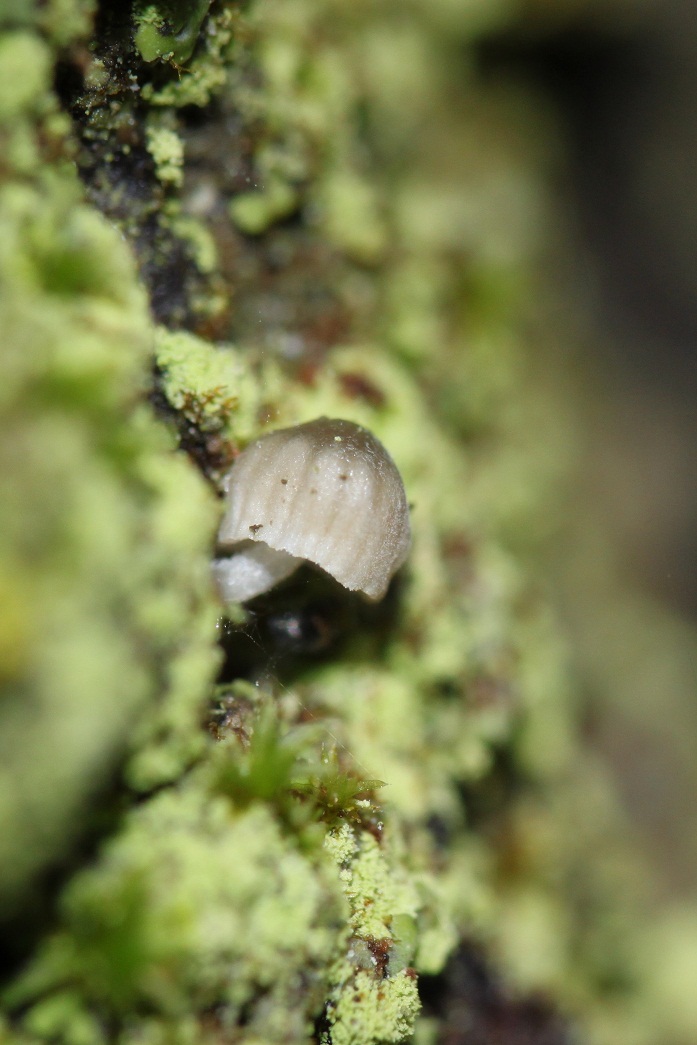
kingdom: Fungi
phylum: Basidiomycota
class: Agaricomycetes
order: Agaricales
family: Mycenaceae
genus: Mycena
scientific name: Mycena clavularis
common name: dunskivet huesvamp
